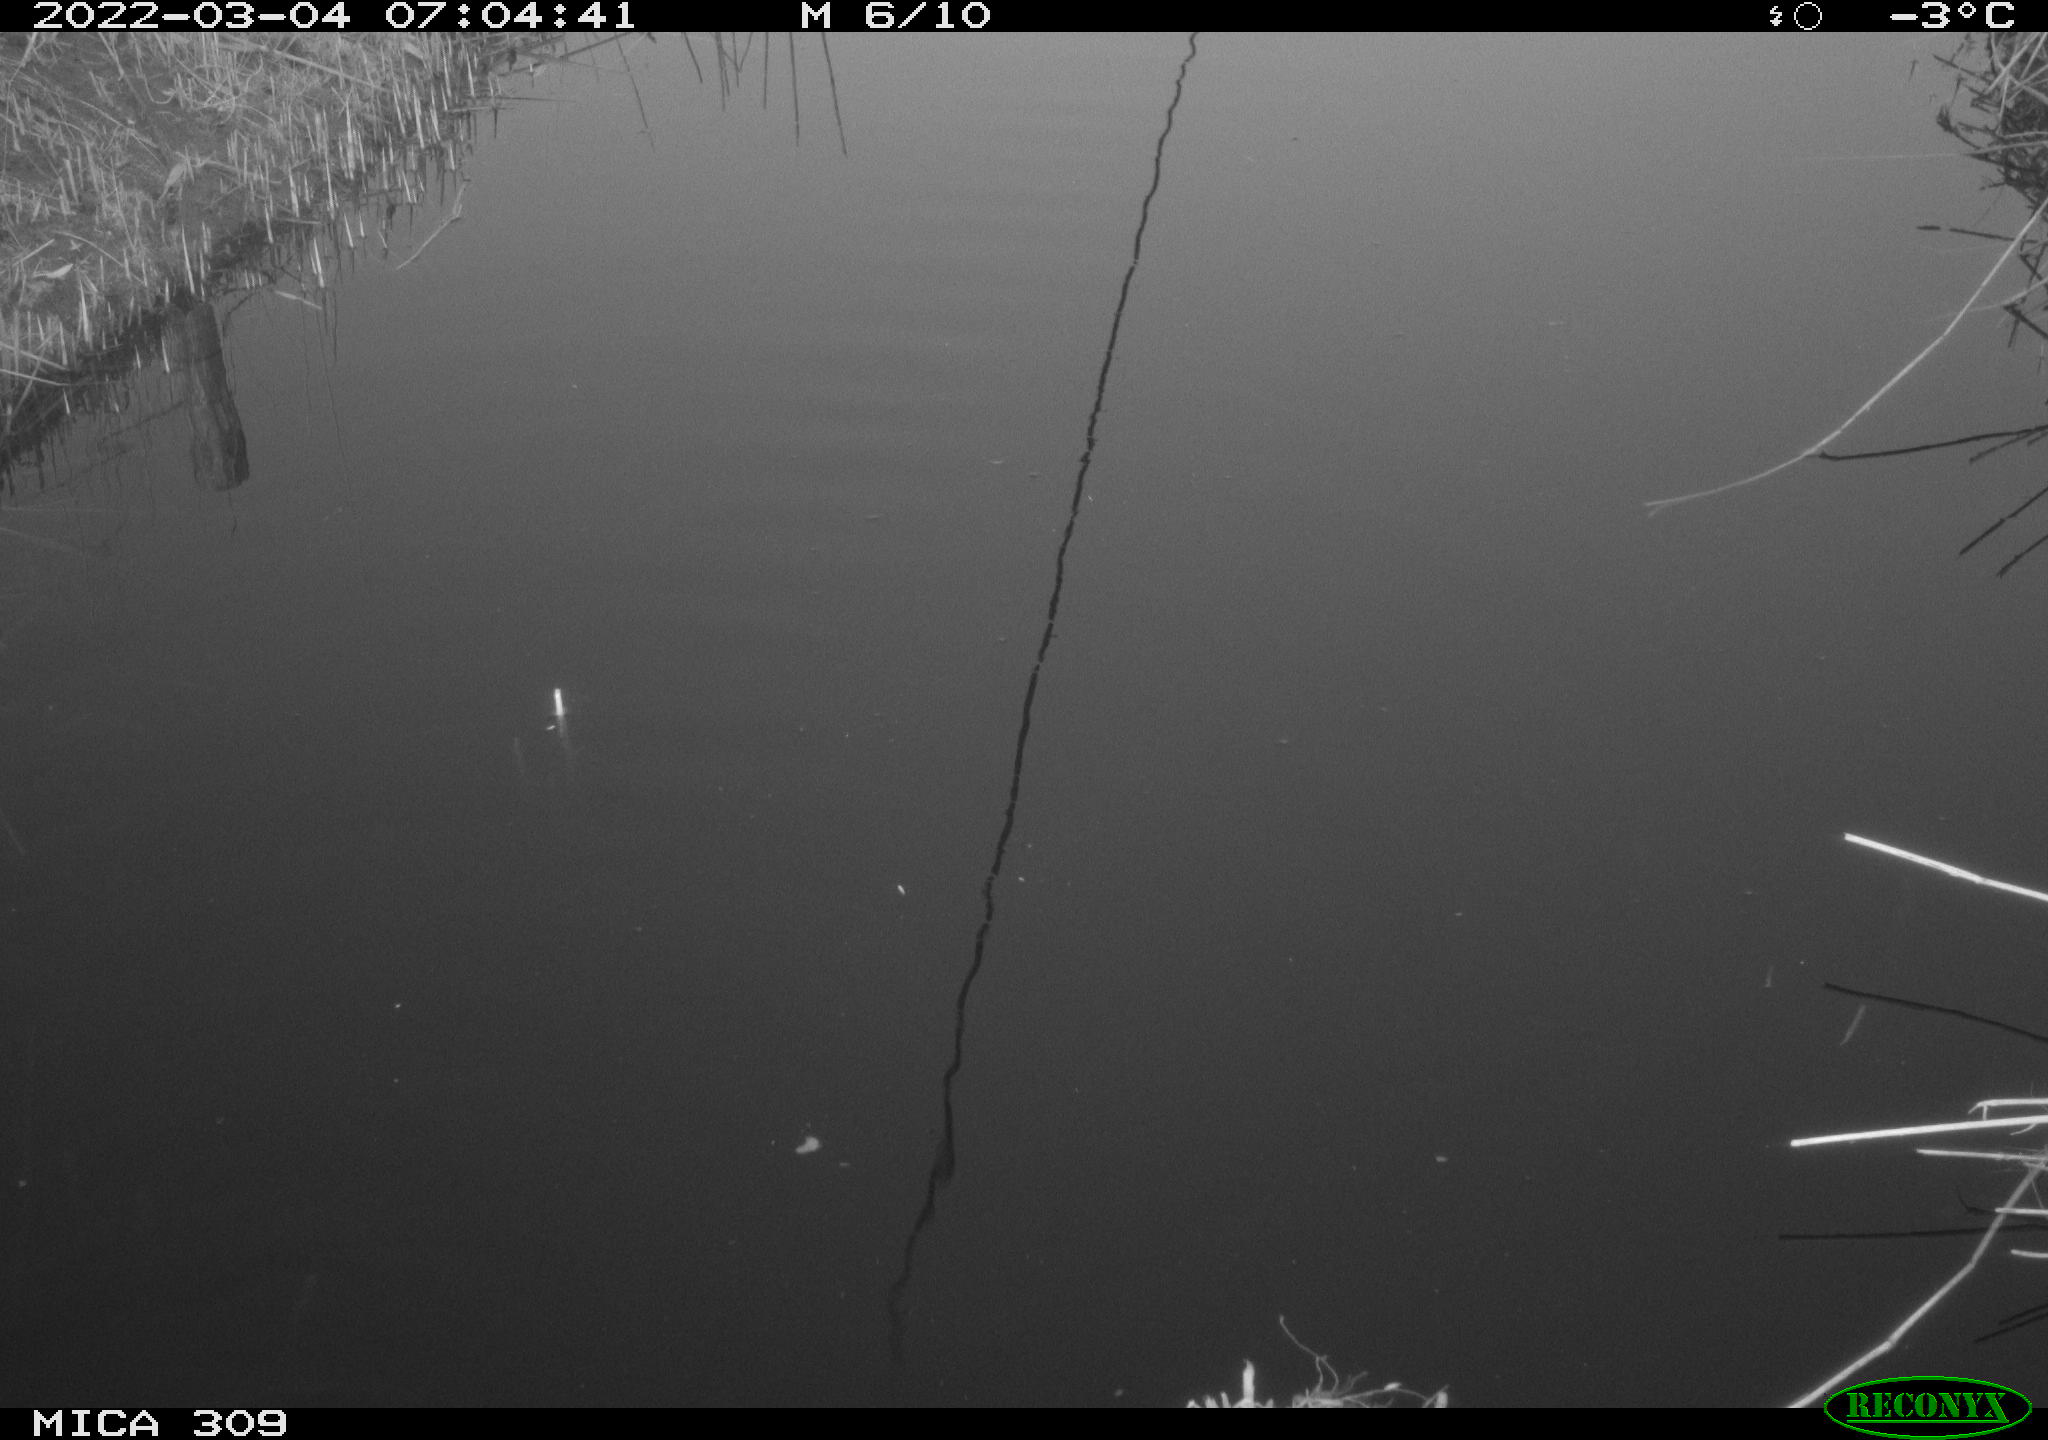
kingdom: Animalia
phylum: Chordata
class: Aves
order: Gruiformes
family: Rallidae
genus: Gallinula
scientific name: Gallinula chloropus
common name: Common moorhen
